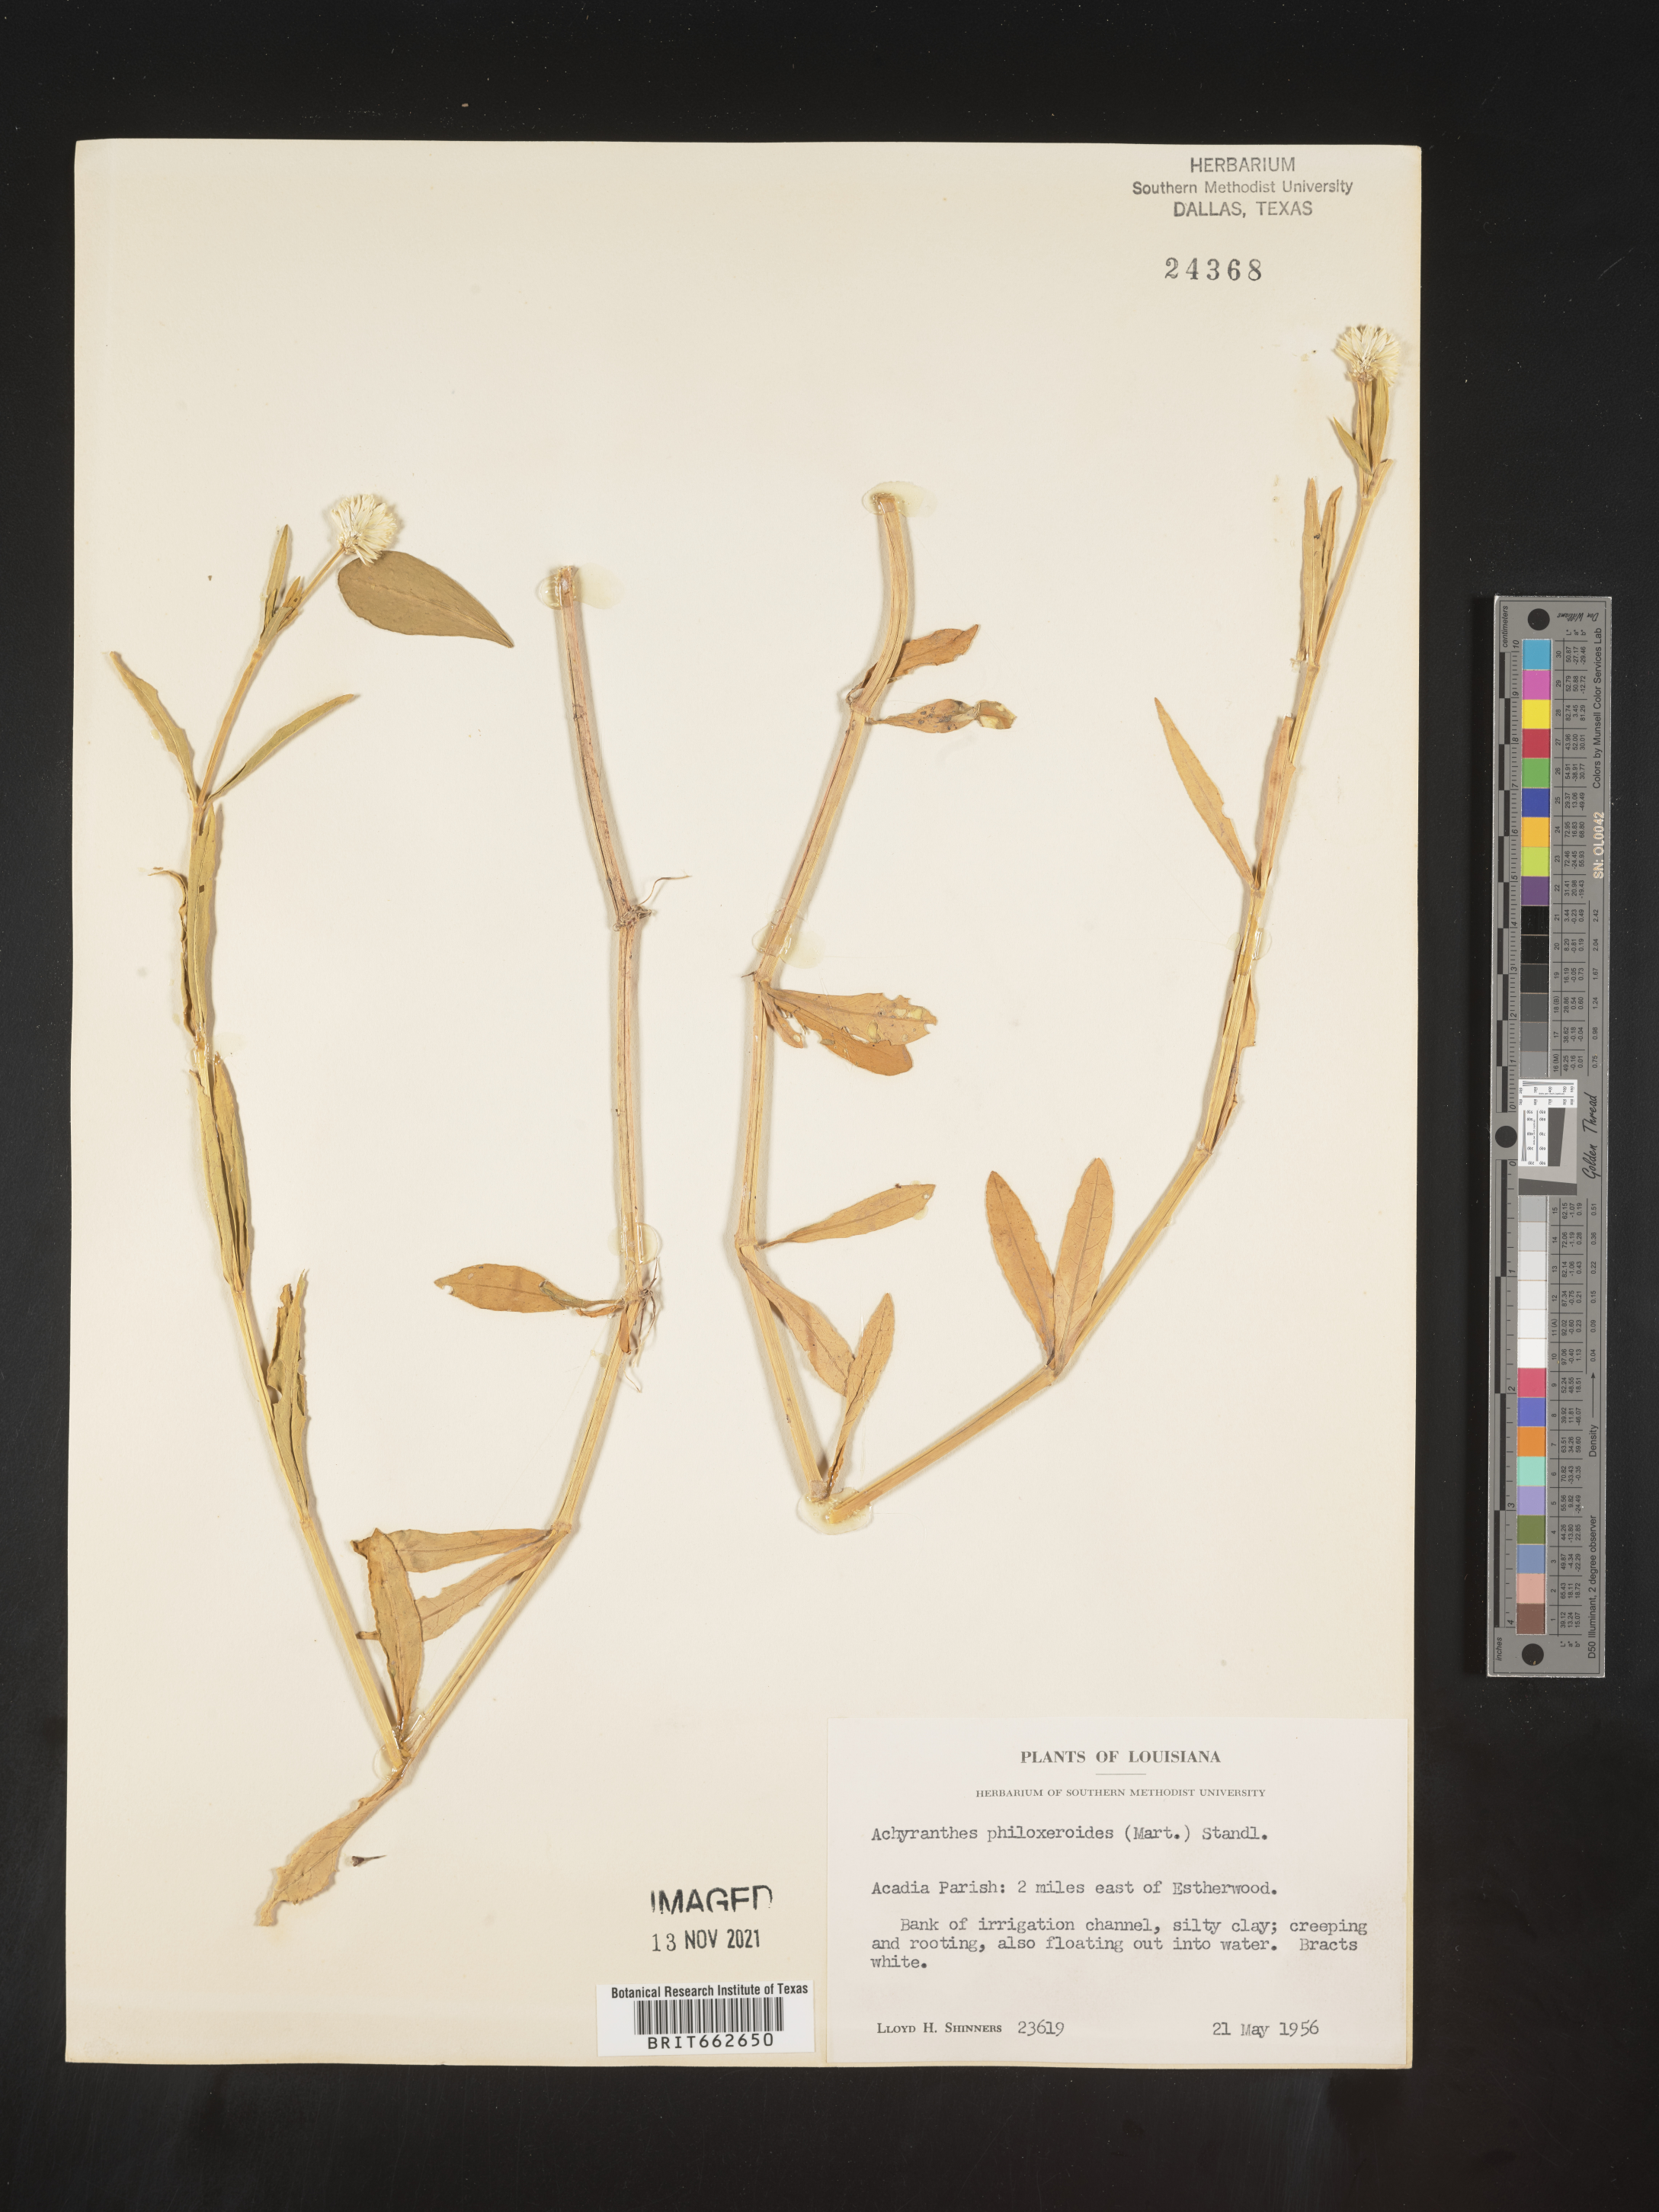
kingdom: Plantae
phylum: Tracheophyta
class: Magnoliopsida
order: Caryophyllales
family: Amaranthaceae
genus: Alternanthera
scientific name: Alternanthera philoxeroides
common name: Alligatorweed
